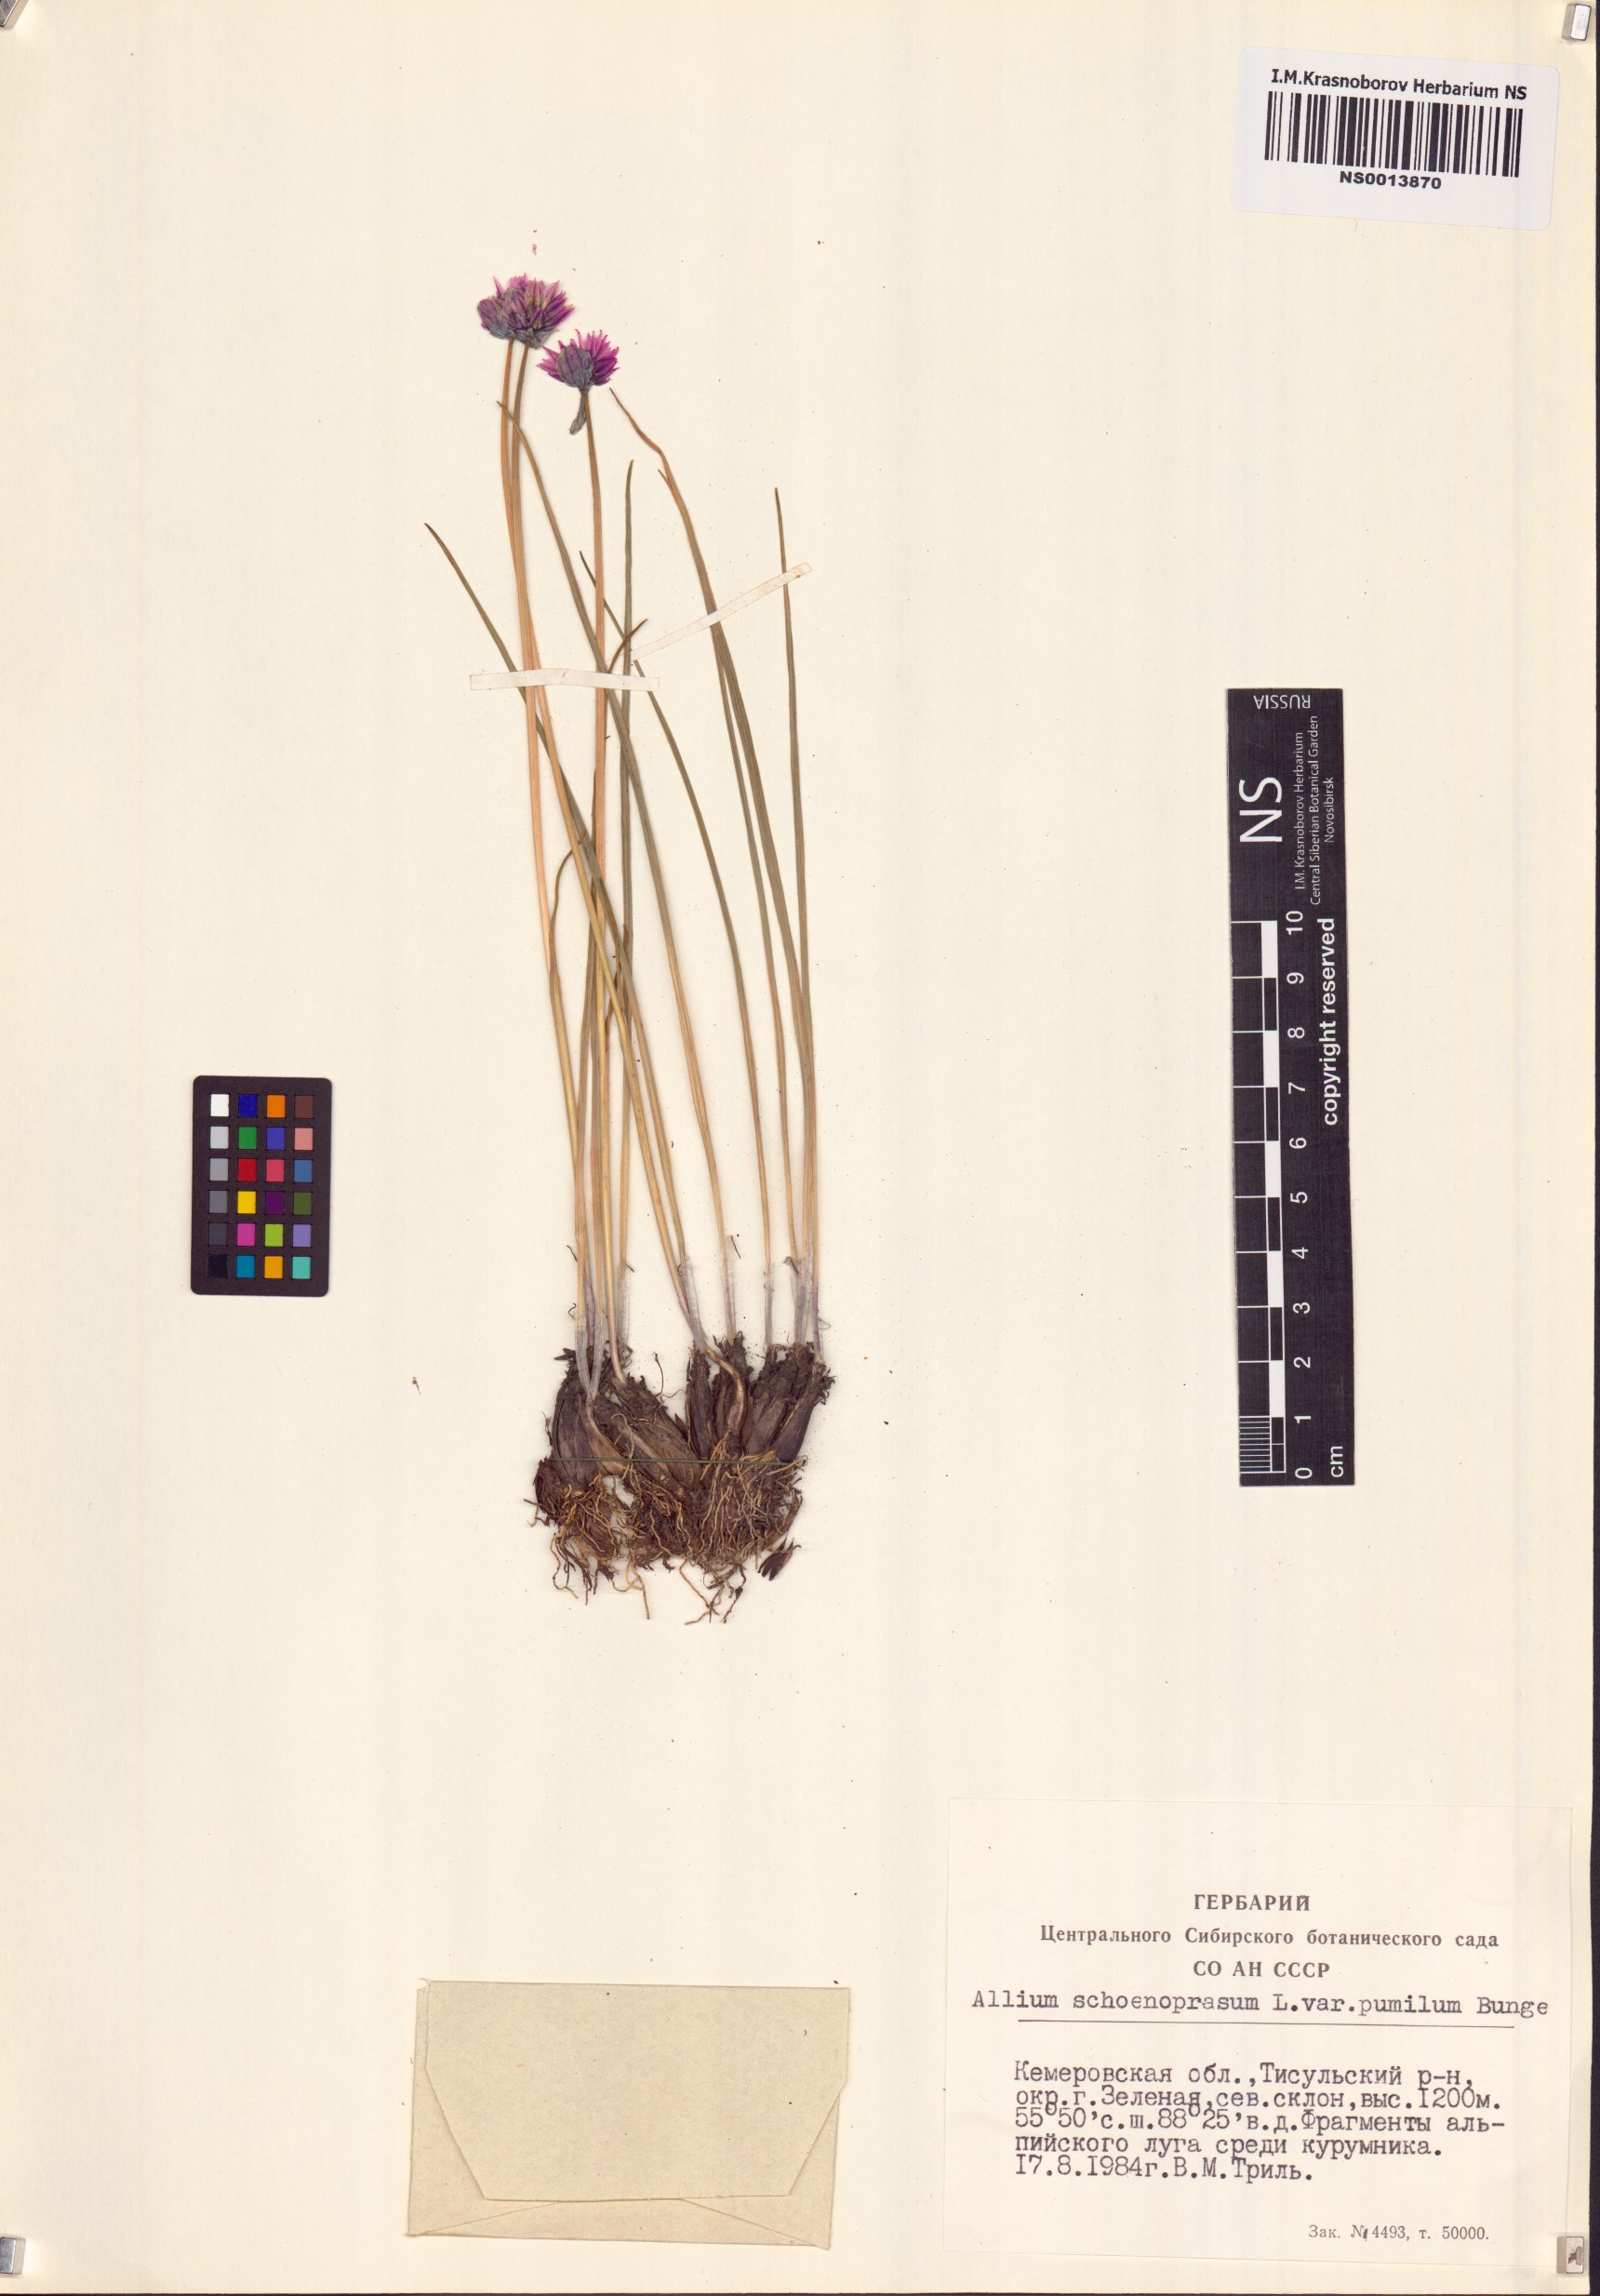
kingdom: Plantae
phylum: Tracheophyta
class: Liliopsida
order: Asparagales
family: Amaryllidaceae
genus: Allium
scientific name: Allium schoenoprasum
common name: Chives
